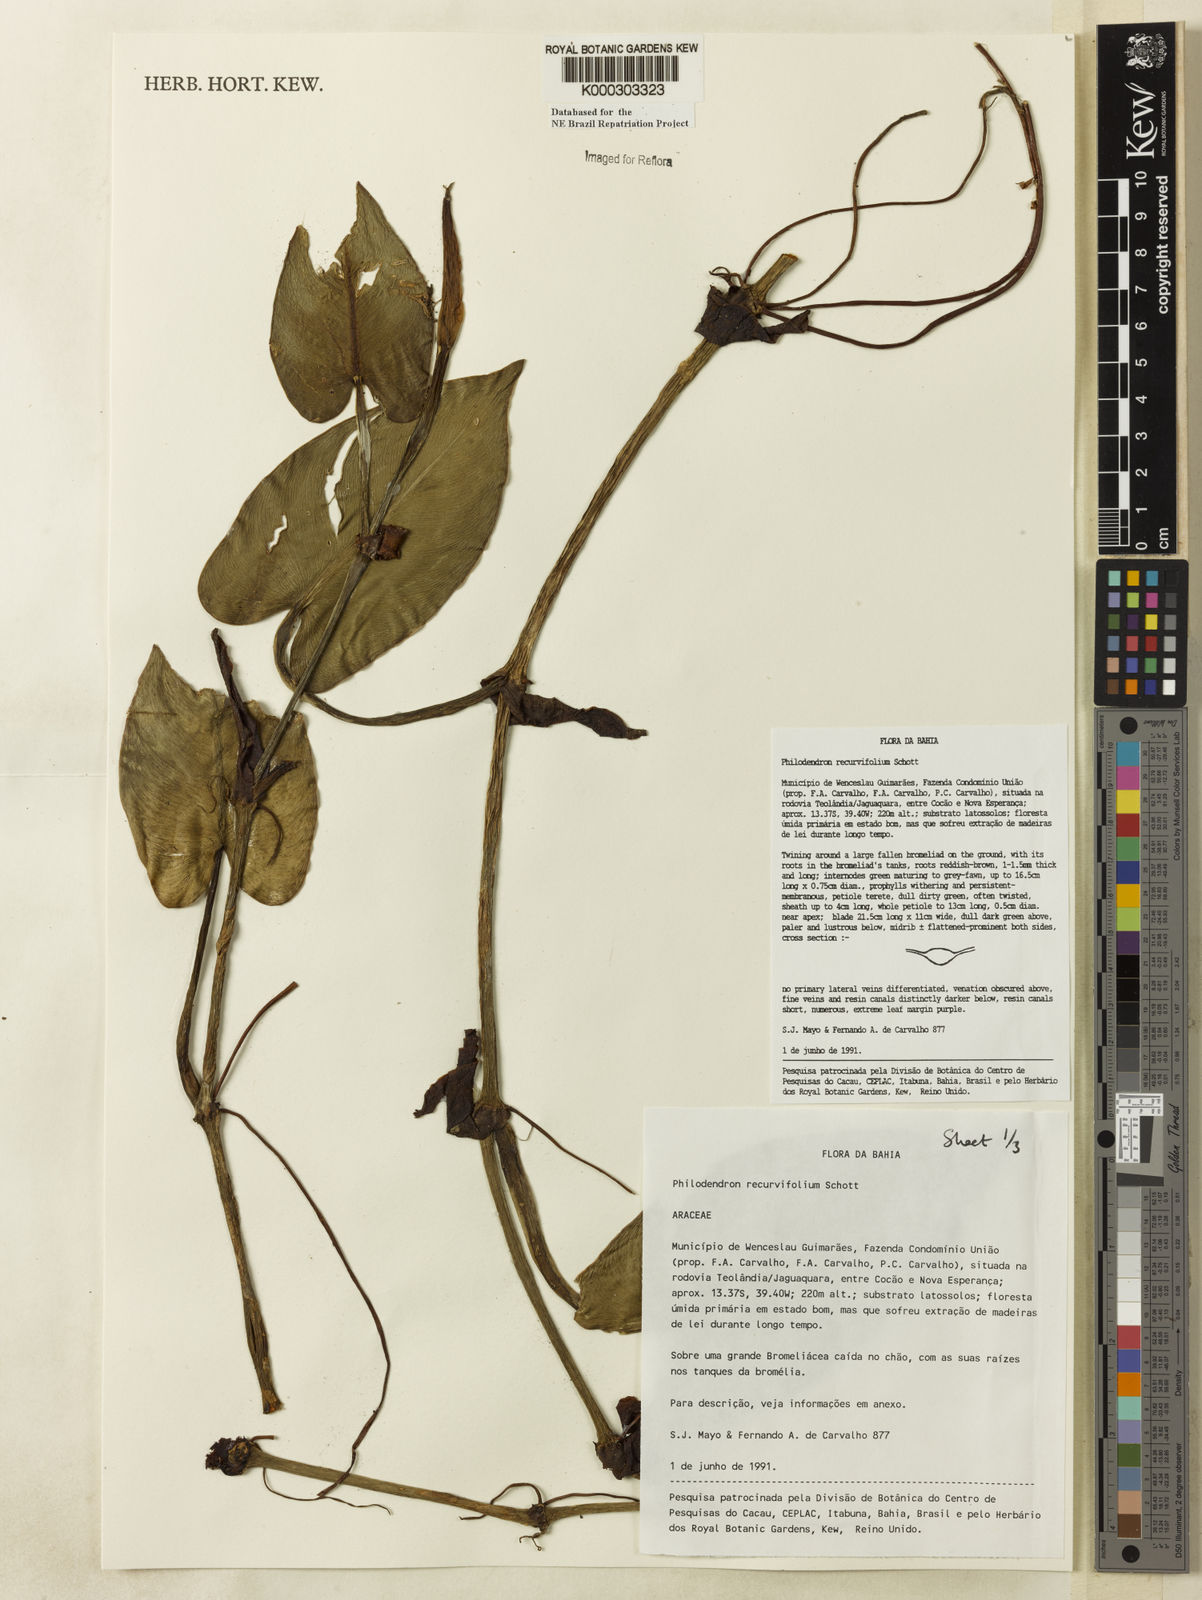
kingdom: Plantae
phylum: Tracheophyta
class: Liliopsida
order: Alismatales
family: Araceae
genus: Philodendron
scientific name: Philodendron recurvifolium
